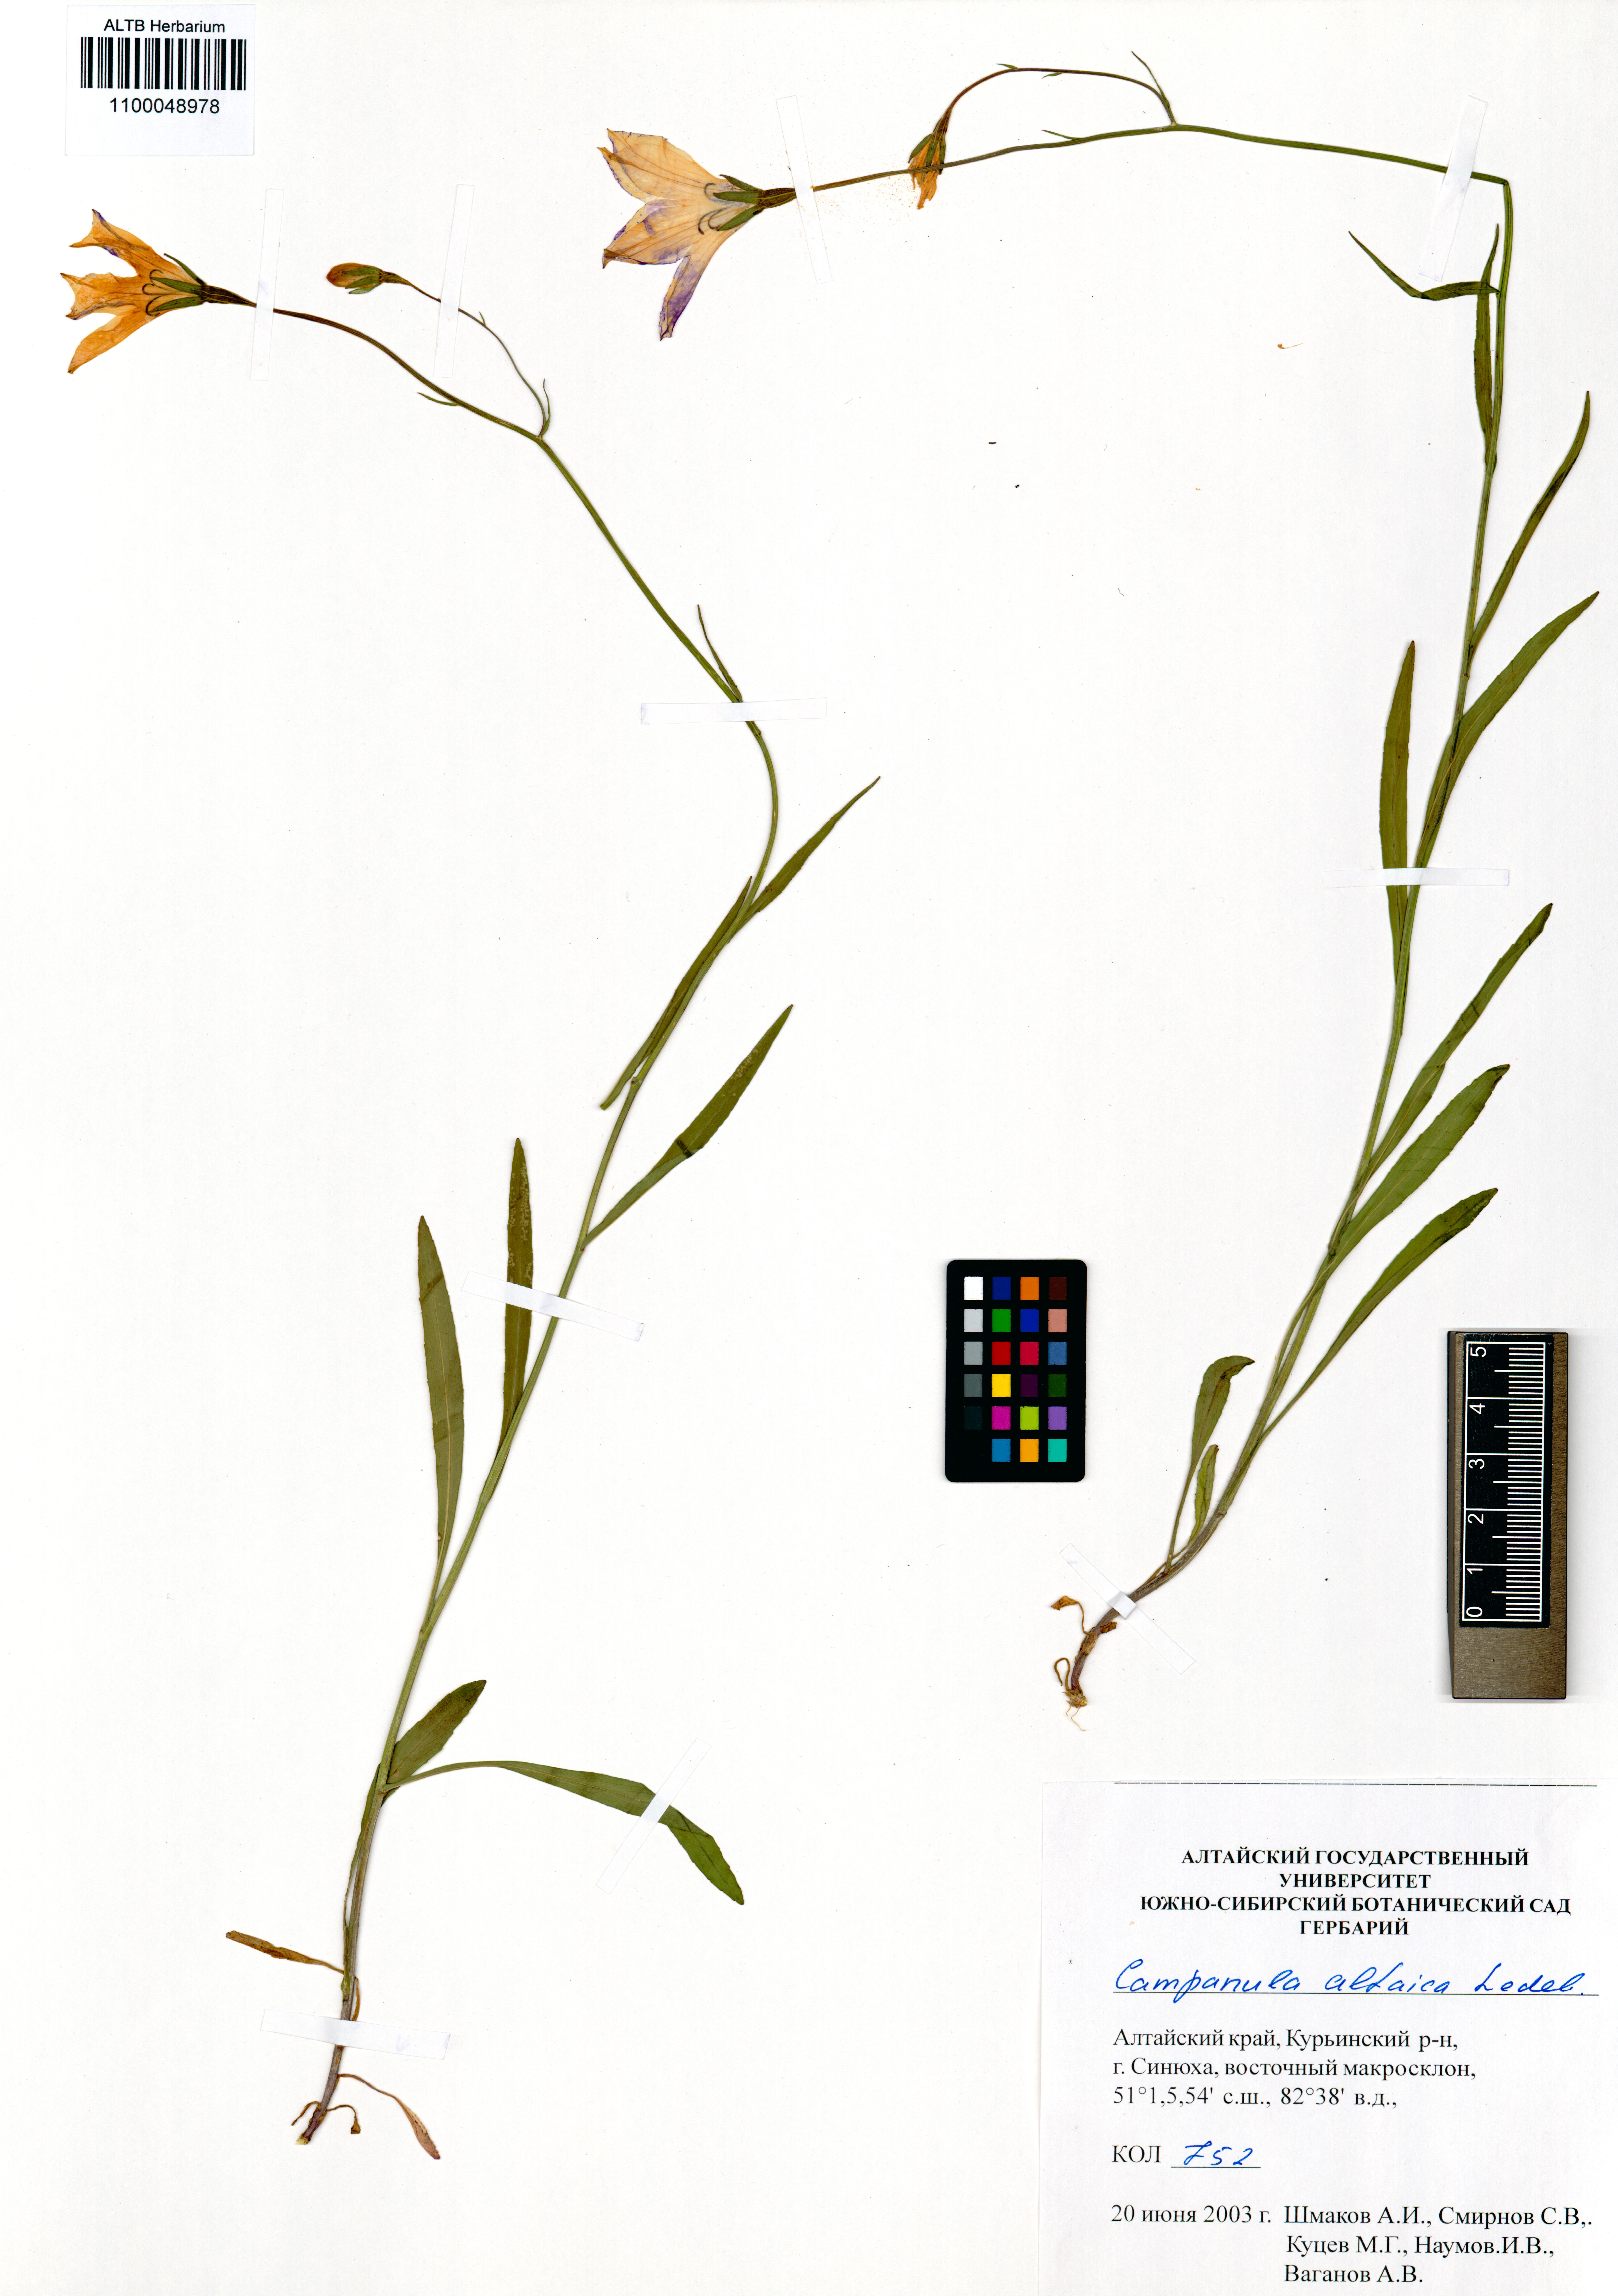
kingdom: Plantae
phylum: Tracheophyta
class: Magnoliopsida
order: Asterales
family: Campanulaceae
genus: Campanula
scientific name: Campanula stevenii
